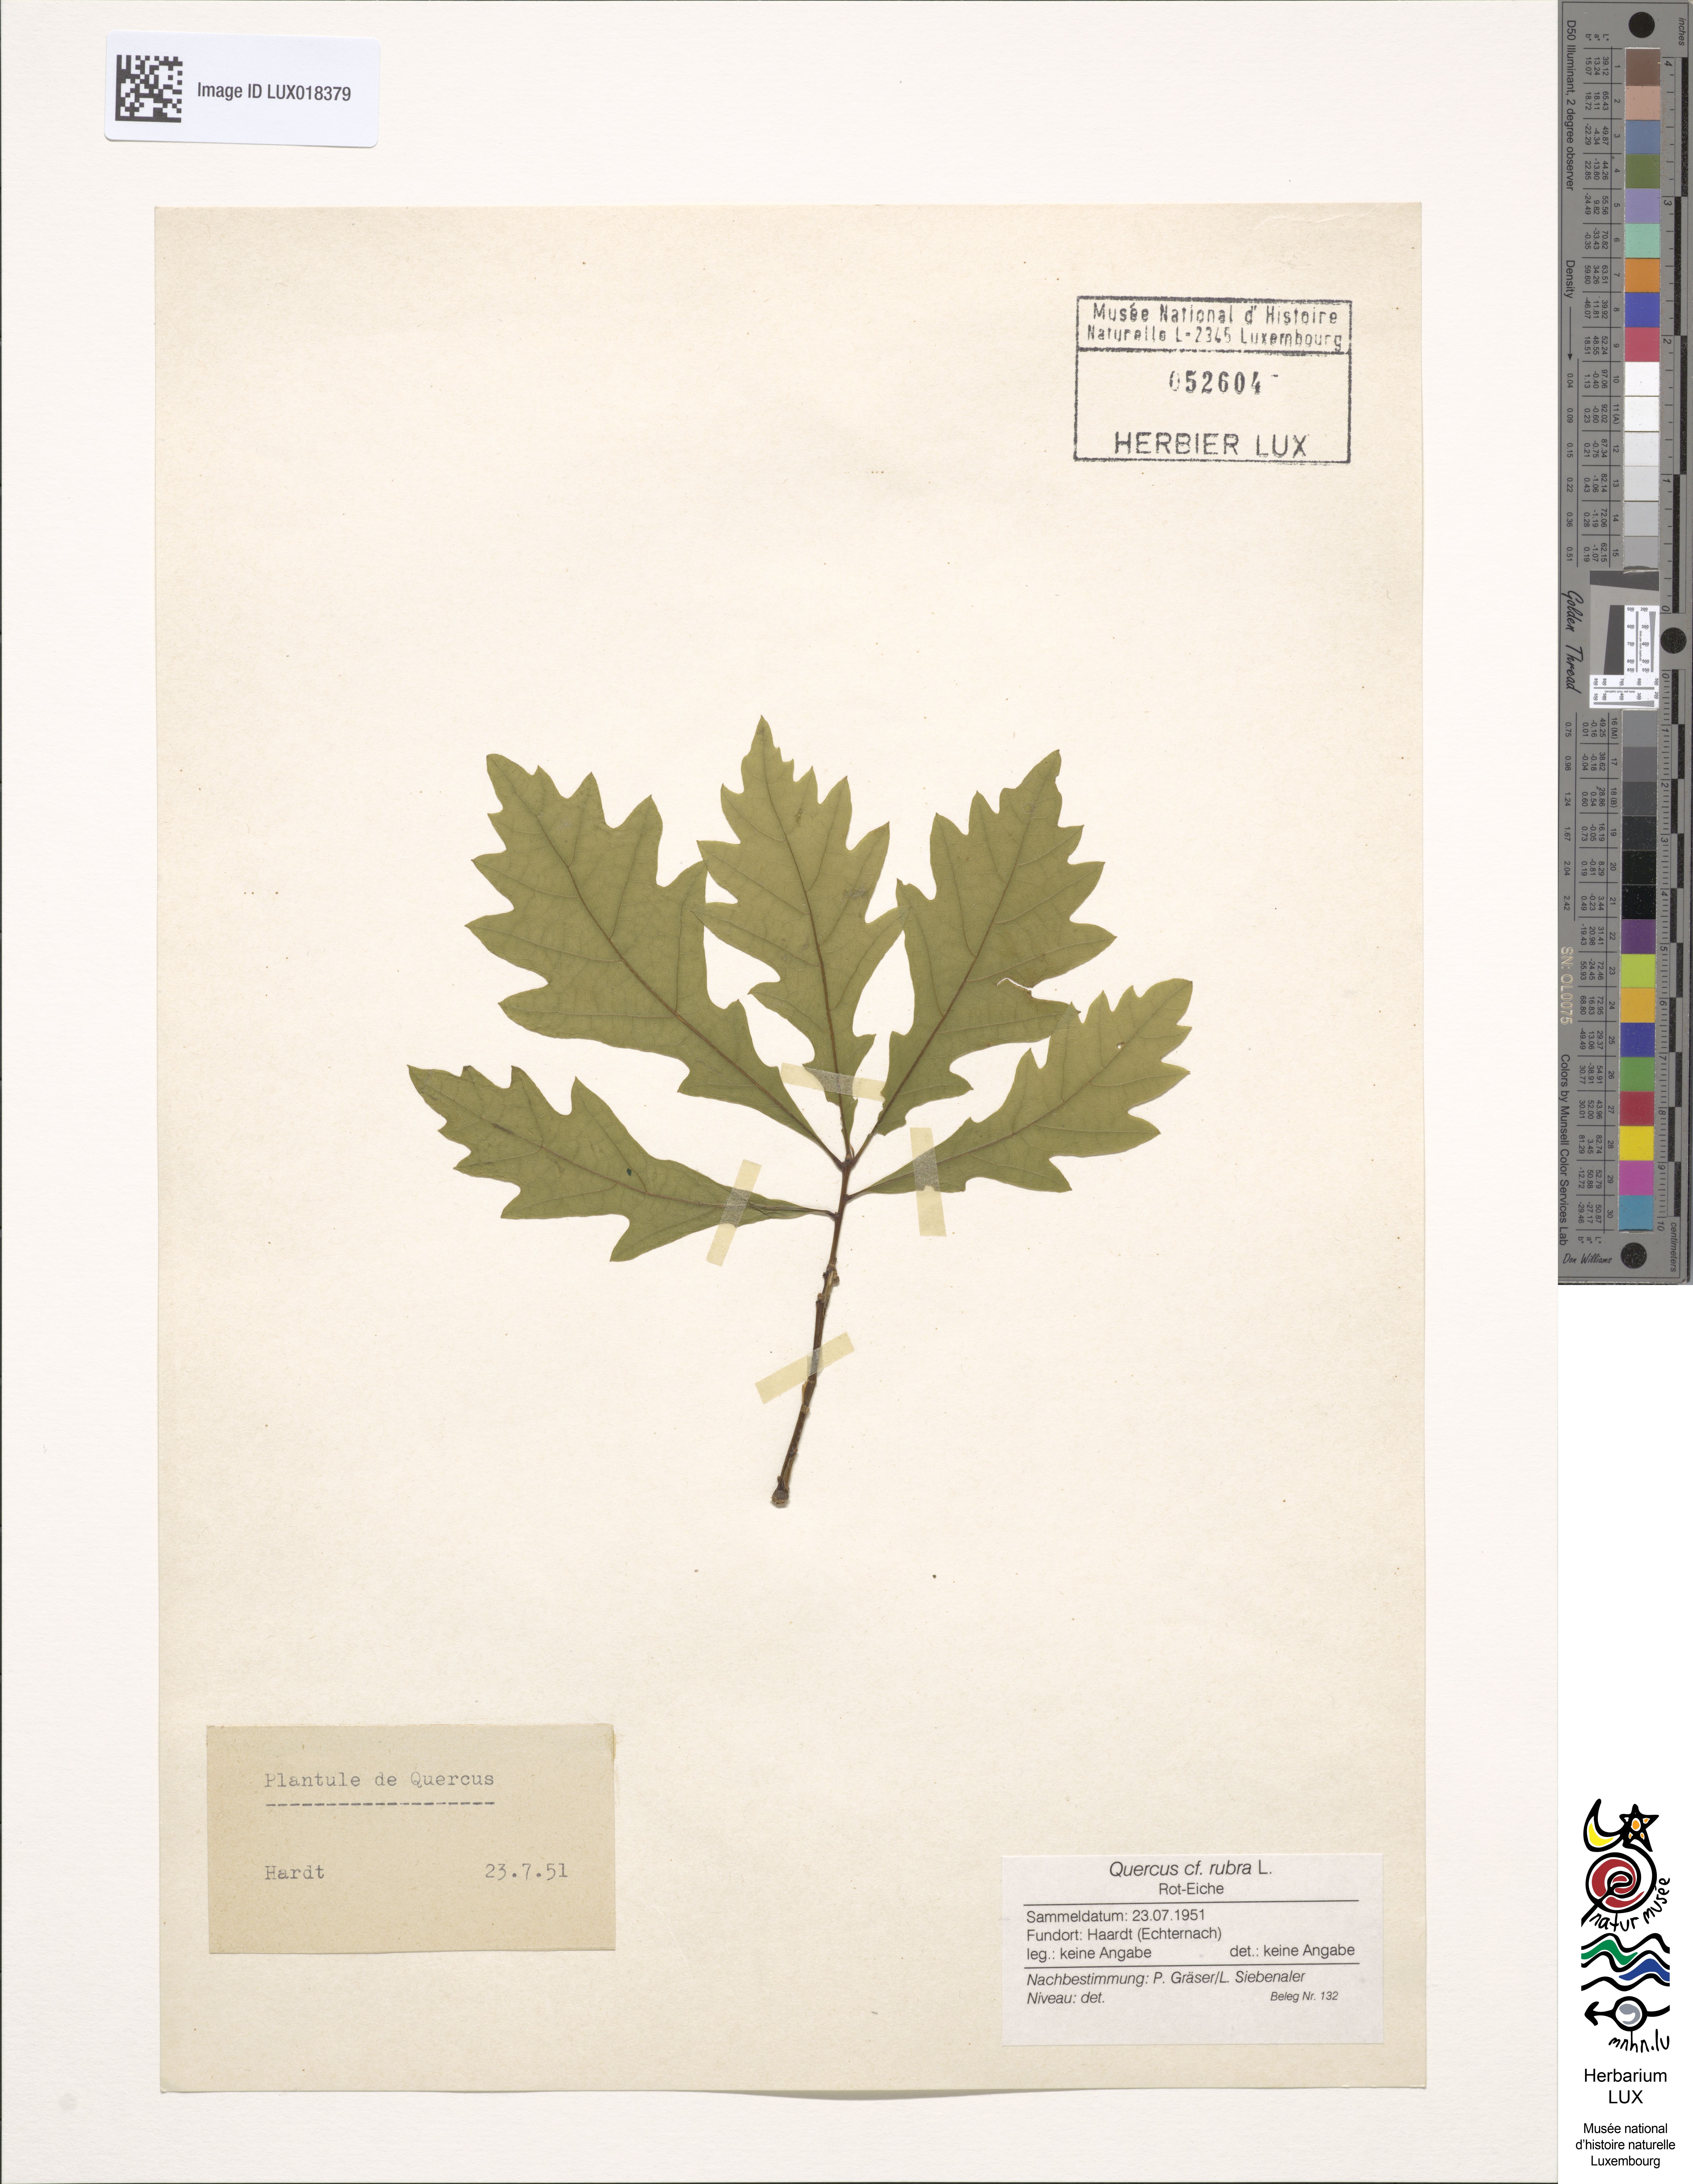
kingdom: Plantae
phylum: Tracheophyta
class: Magnoliopsida
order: Fagales
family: Fagaceae
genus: Quercus
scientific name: Quercus rubra
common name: Red oak
